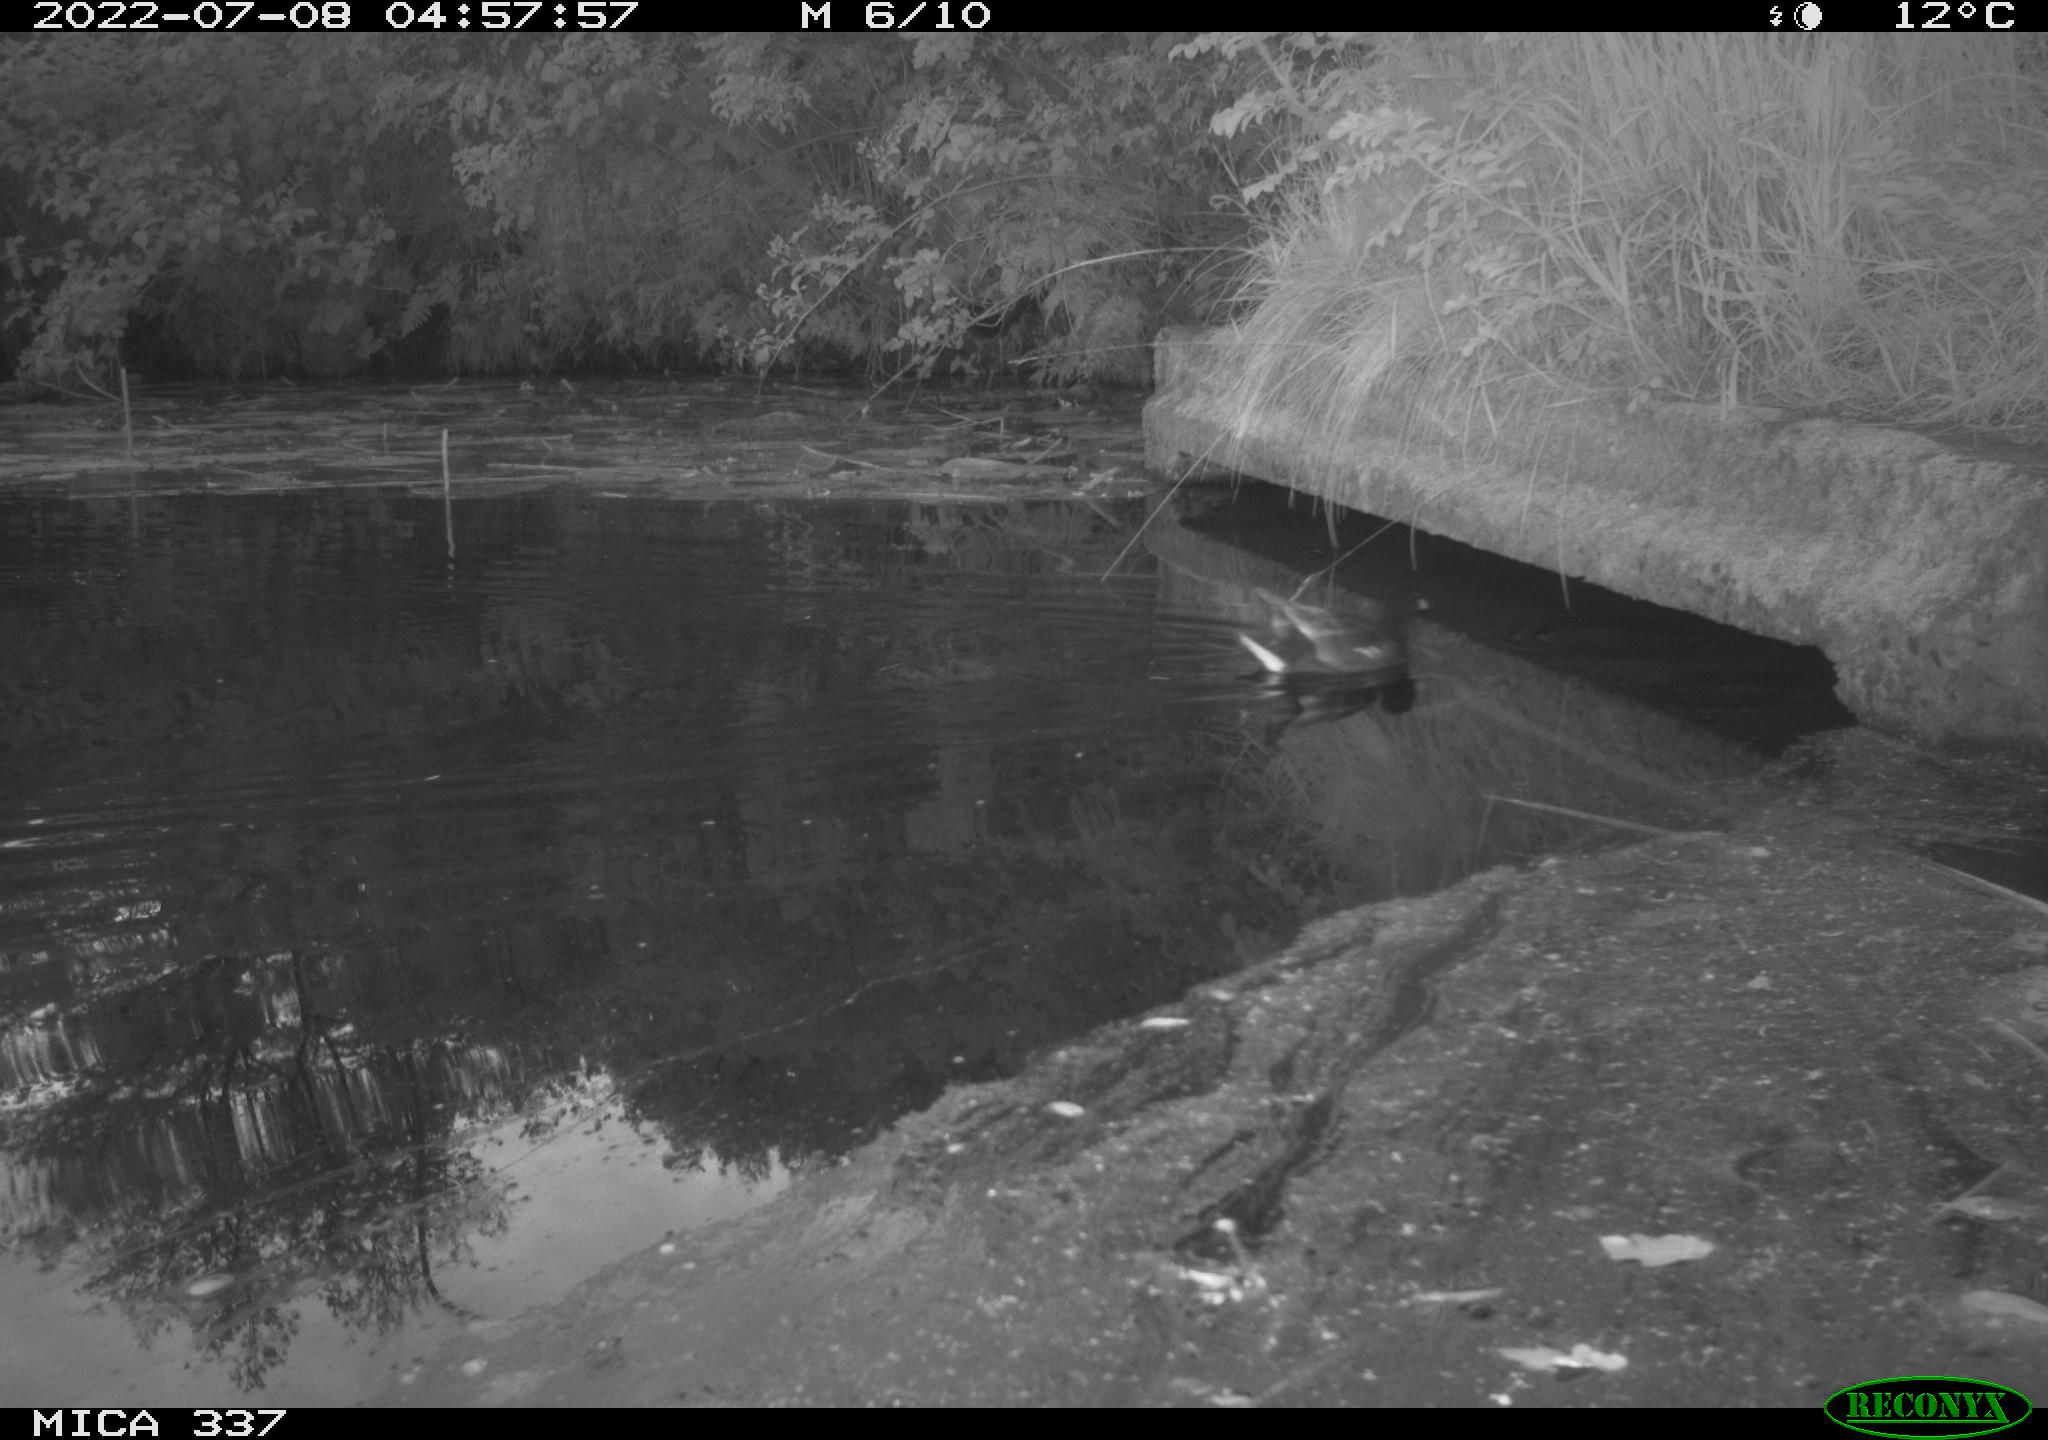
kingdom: Animalia
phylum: Chordata
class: Aves
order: Gruiformes
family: Rallidae
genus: Gallinula
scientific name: Gallinula chloropus
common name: Common moorhen
